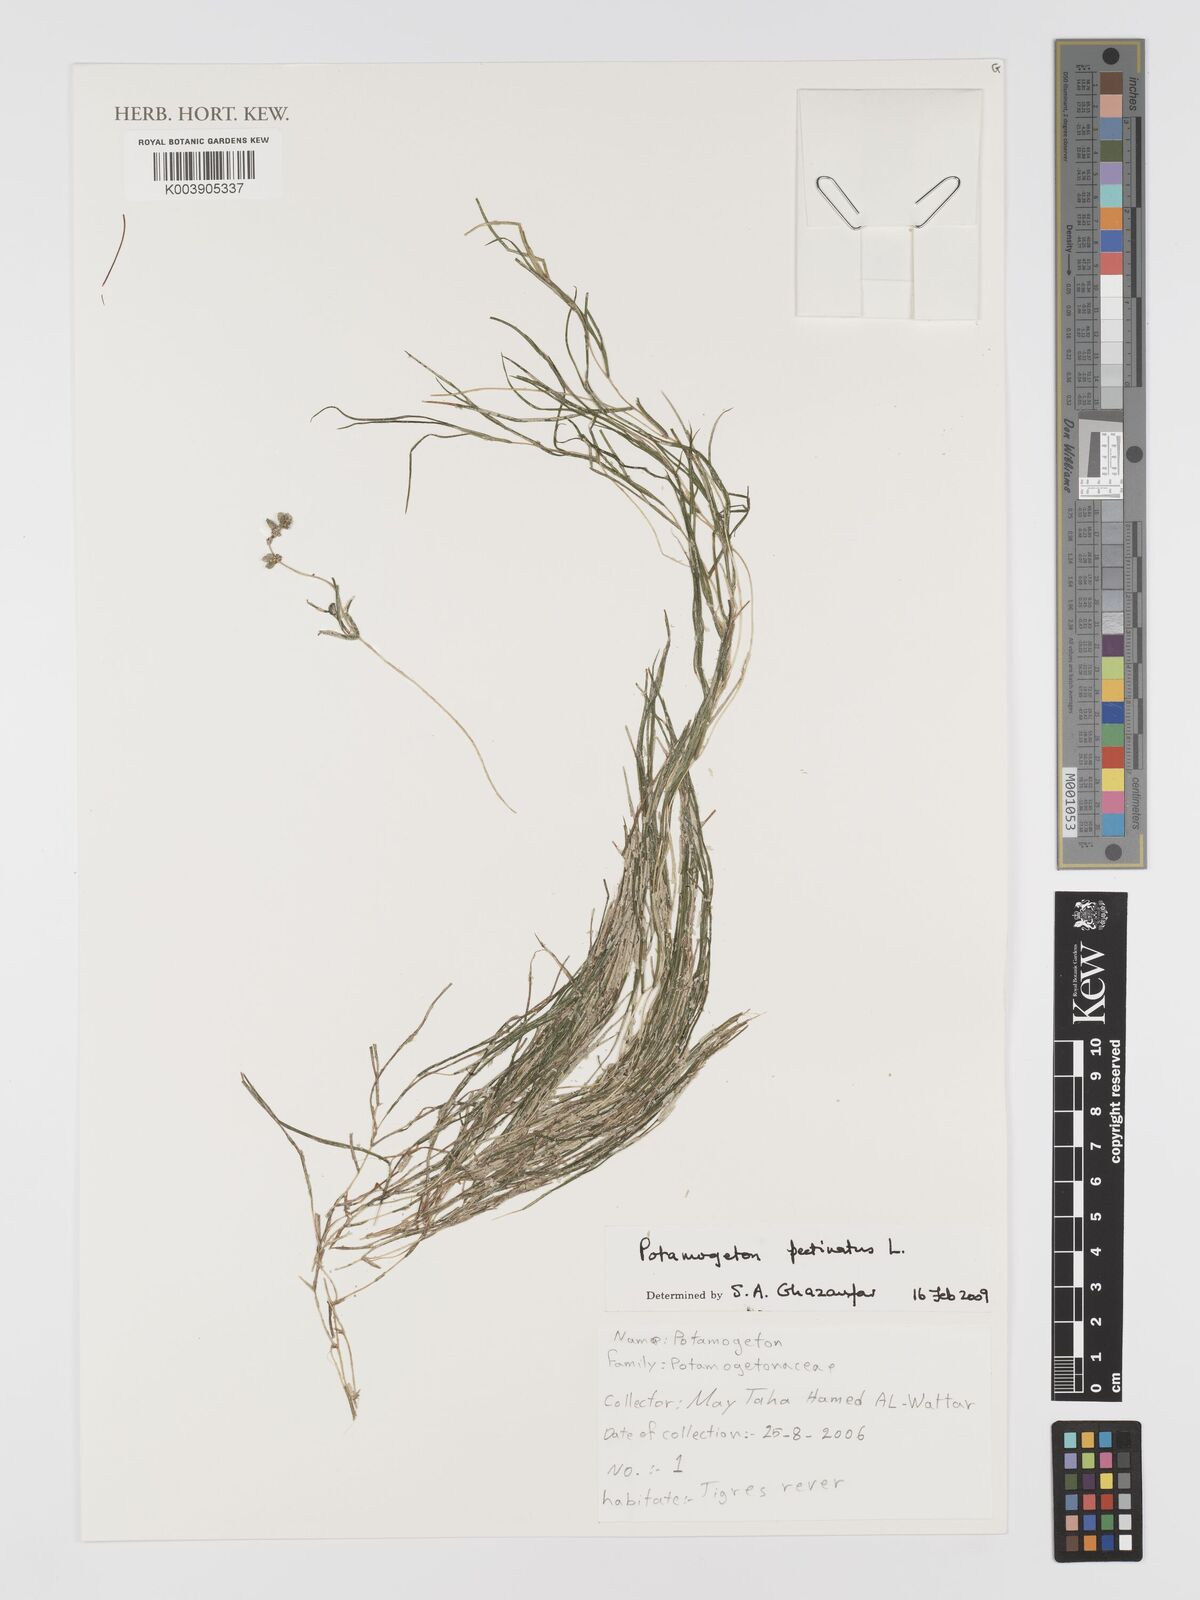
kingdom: Plantae
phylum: Tracheophyta
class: Liliopsida
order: Alismatales
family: Potamogetonaceae
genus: Stuckenia
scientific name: Stuckenia pectinata
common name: Sago pondweed
